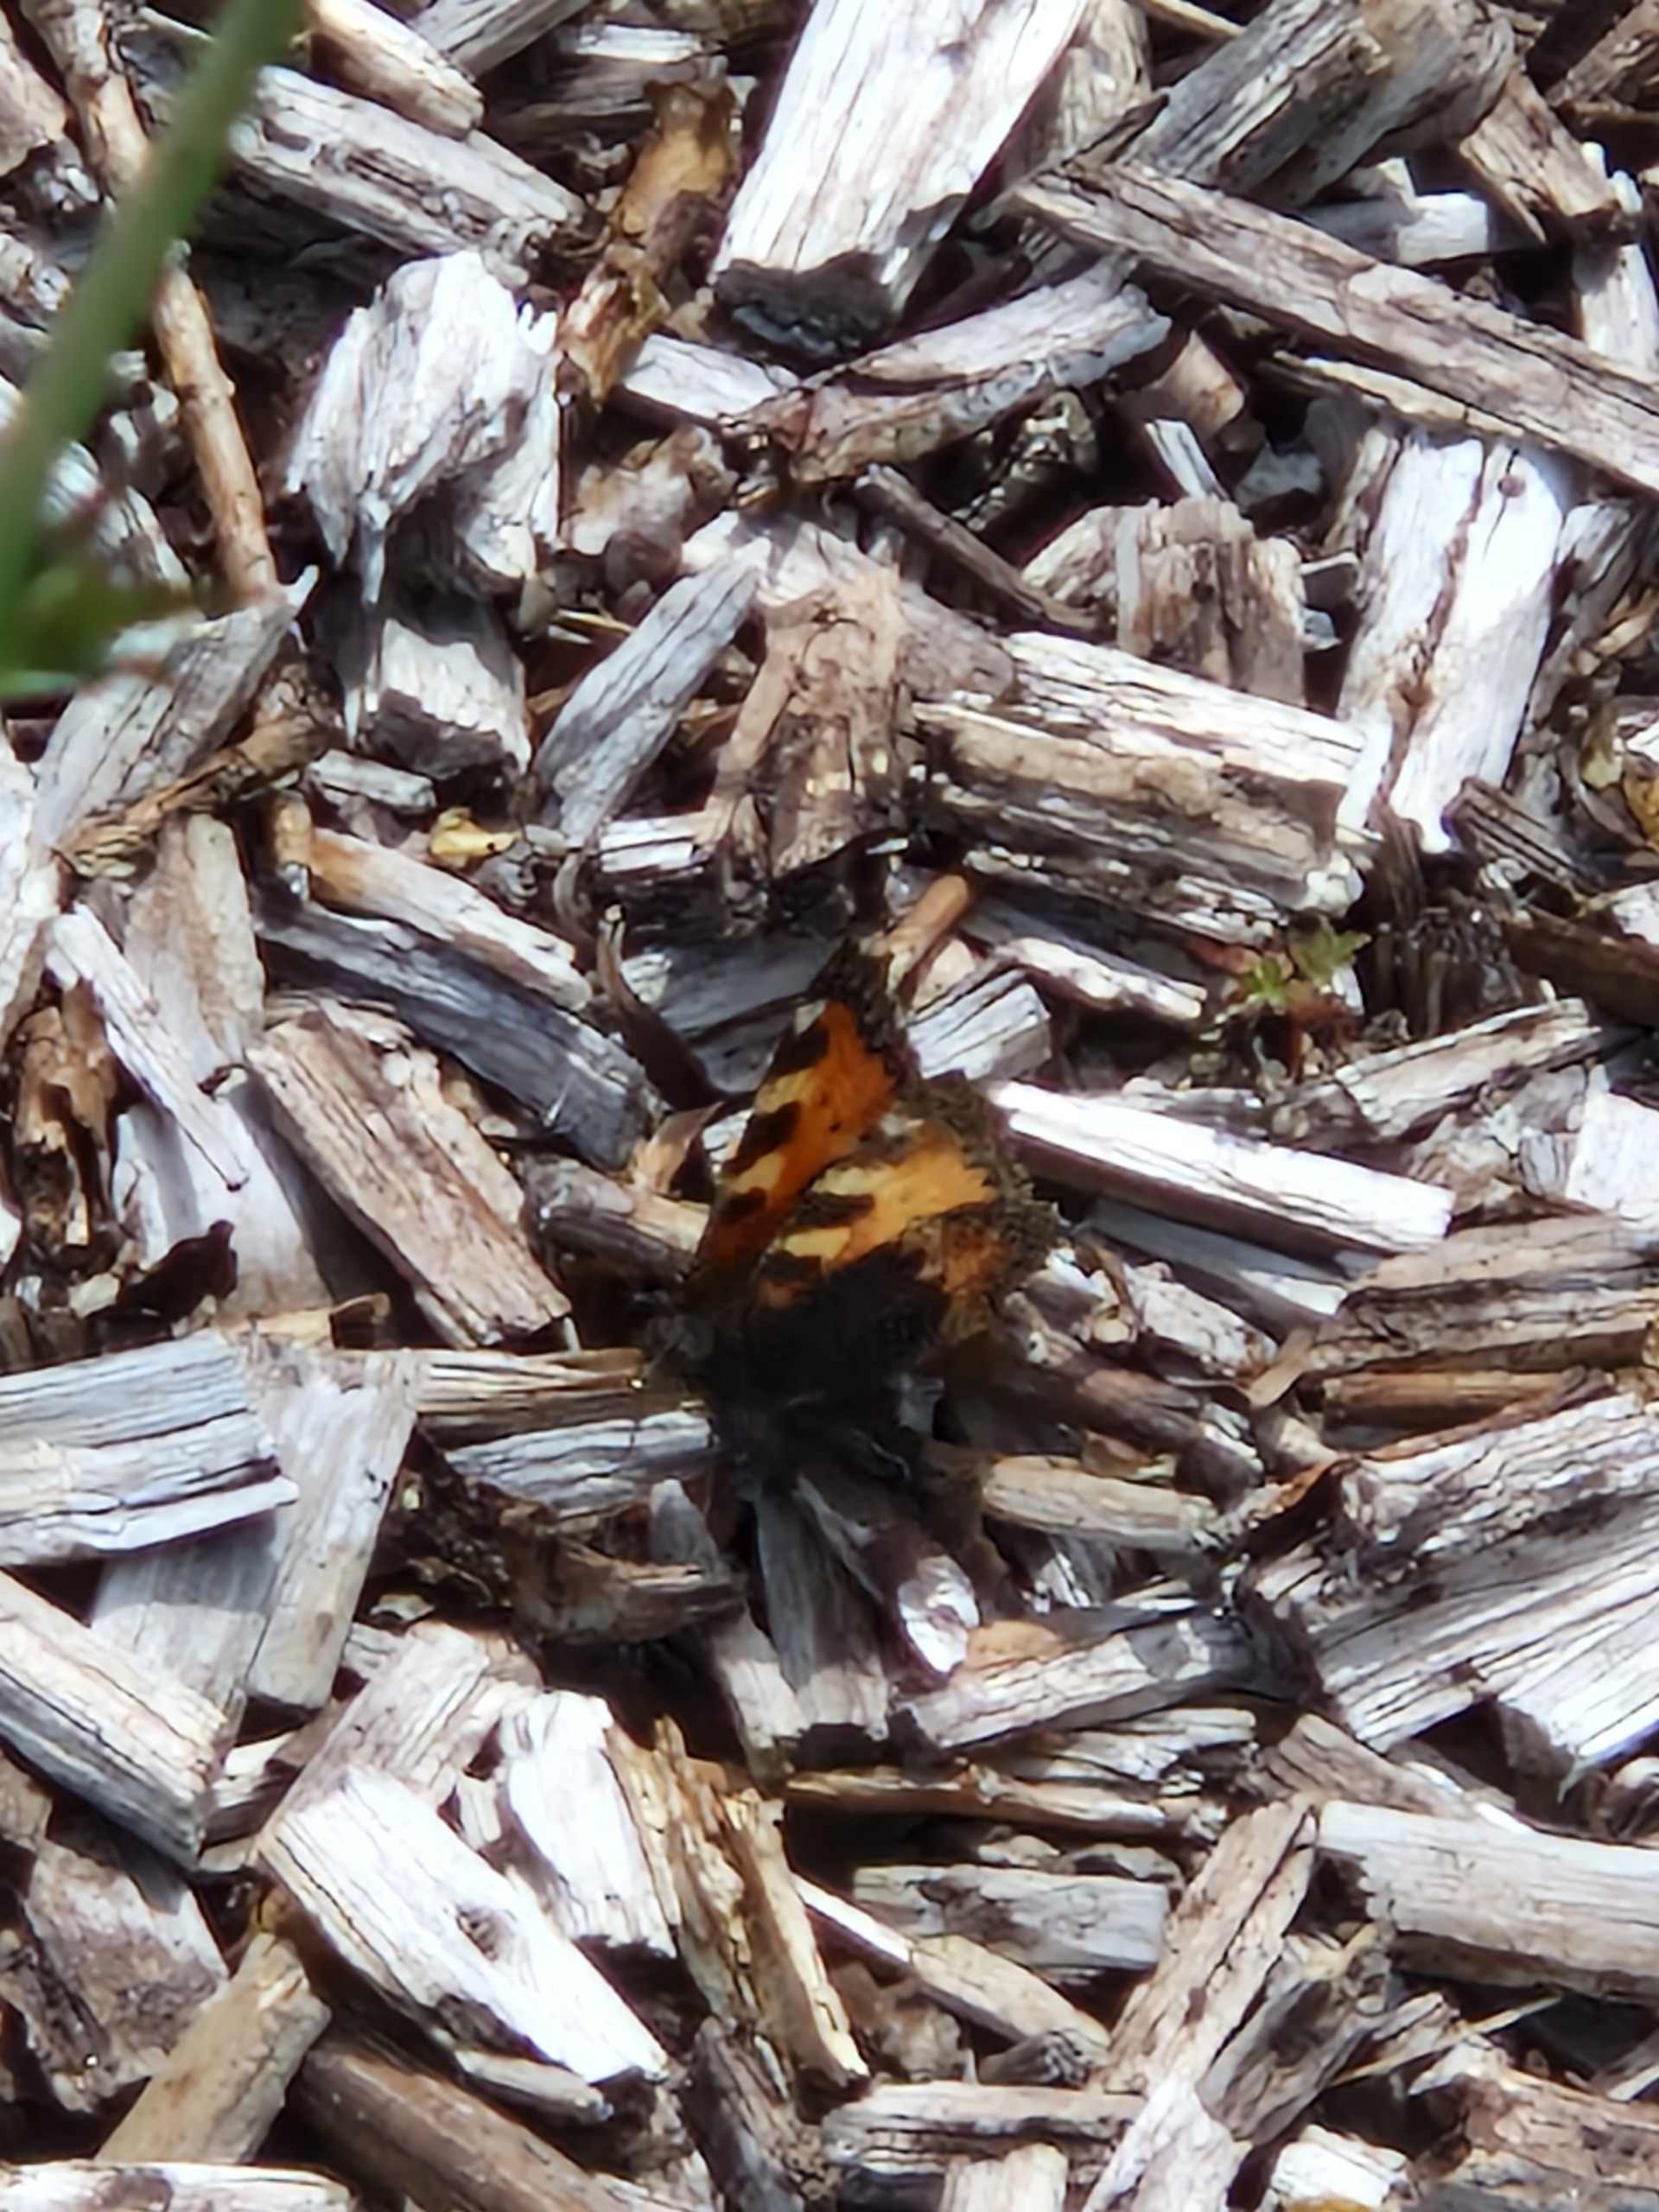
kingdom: Animalia
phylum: Arthropoda
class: Insecta
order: Lepidoptera
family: Nymphalidae
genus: Aglais
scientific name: Aglais urticae
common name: Nældens takvinge
